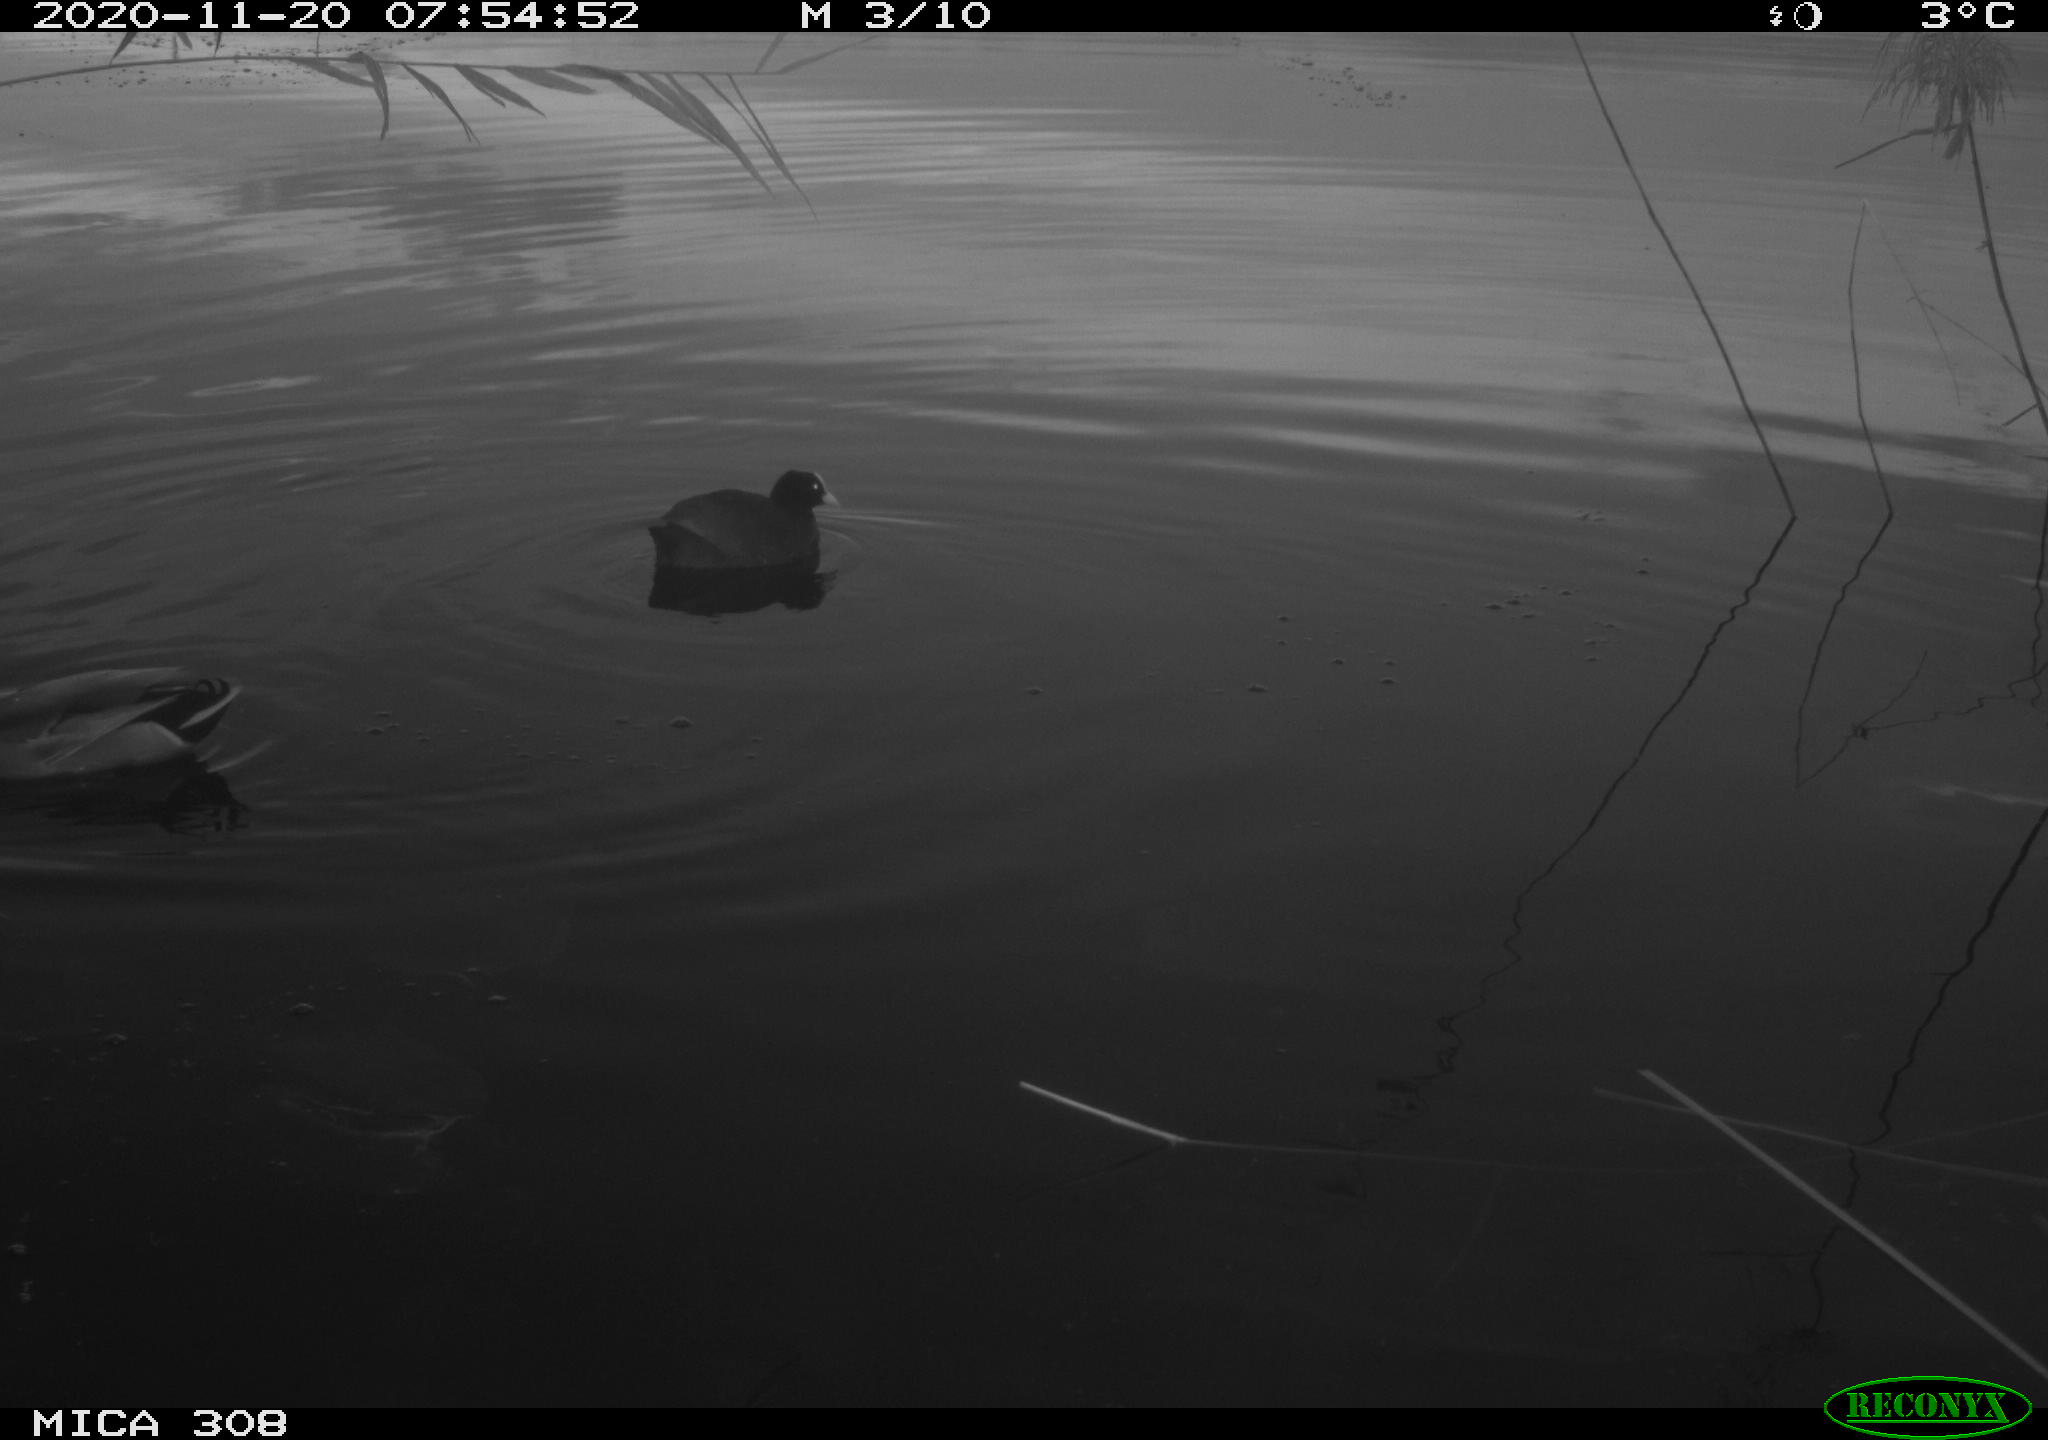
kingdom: Animalia
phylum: Chordata
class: Aves
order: Gruiformes
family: Rallidae
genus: Fulica
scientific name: Fulica atra
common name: Eurasian coot
